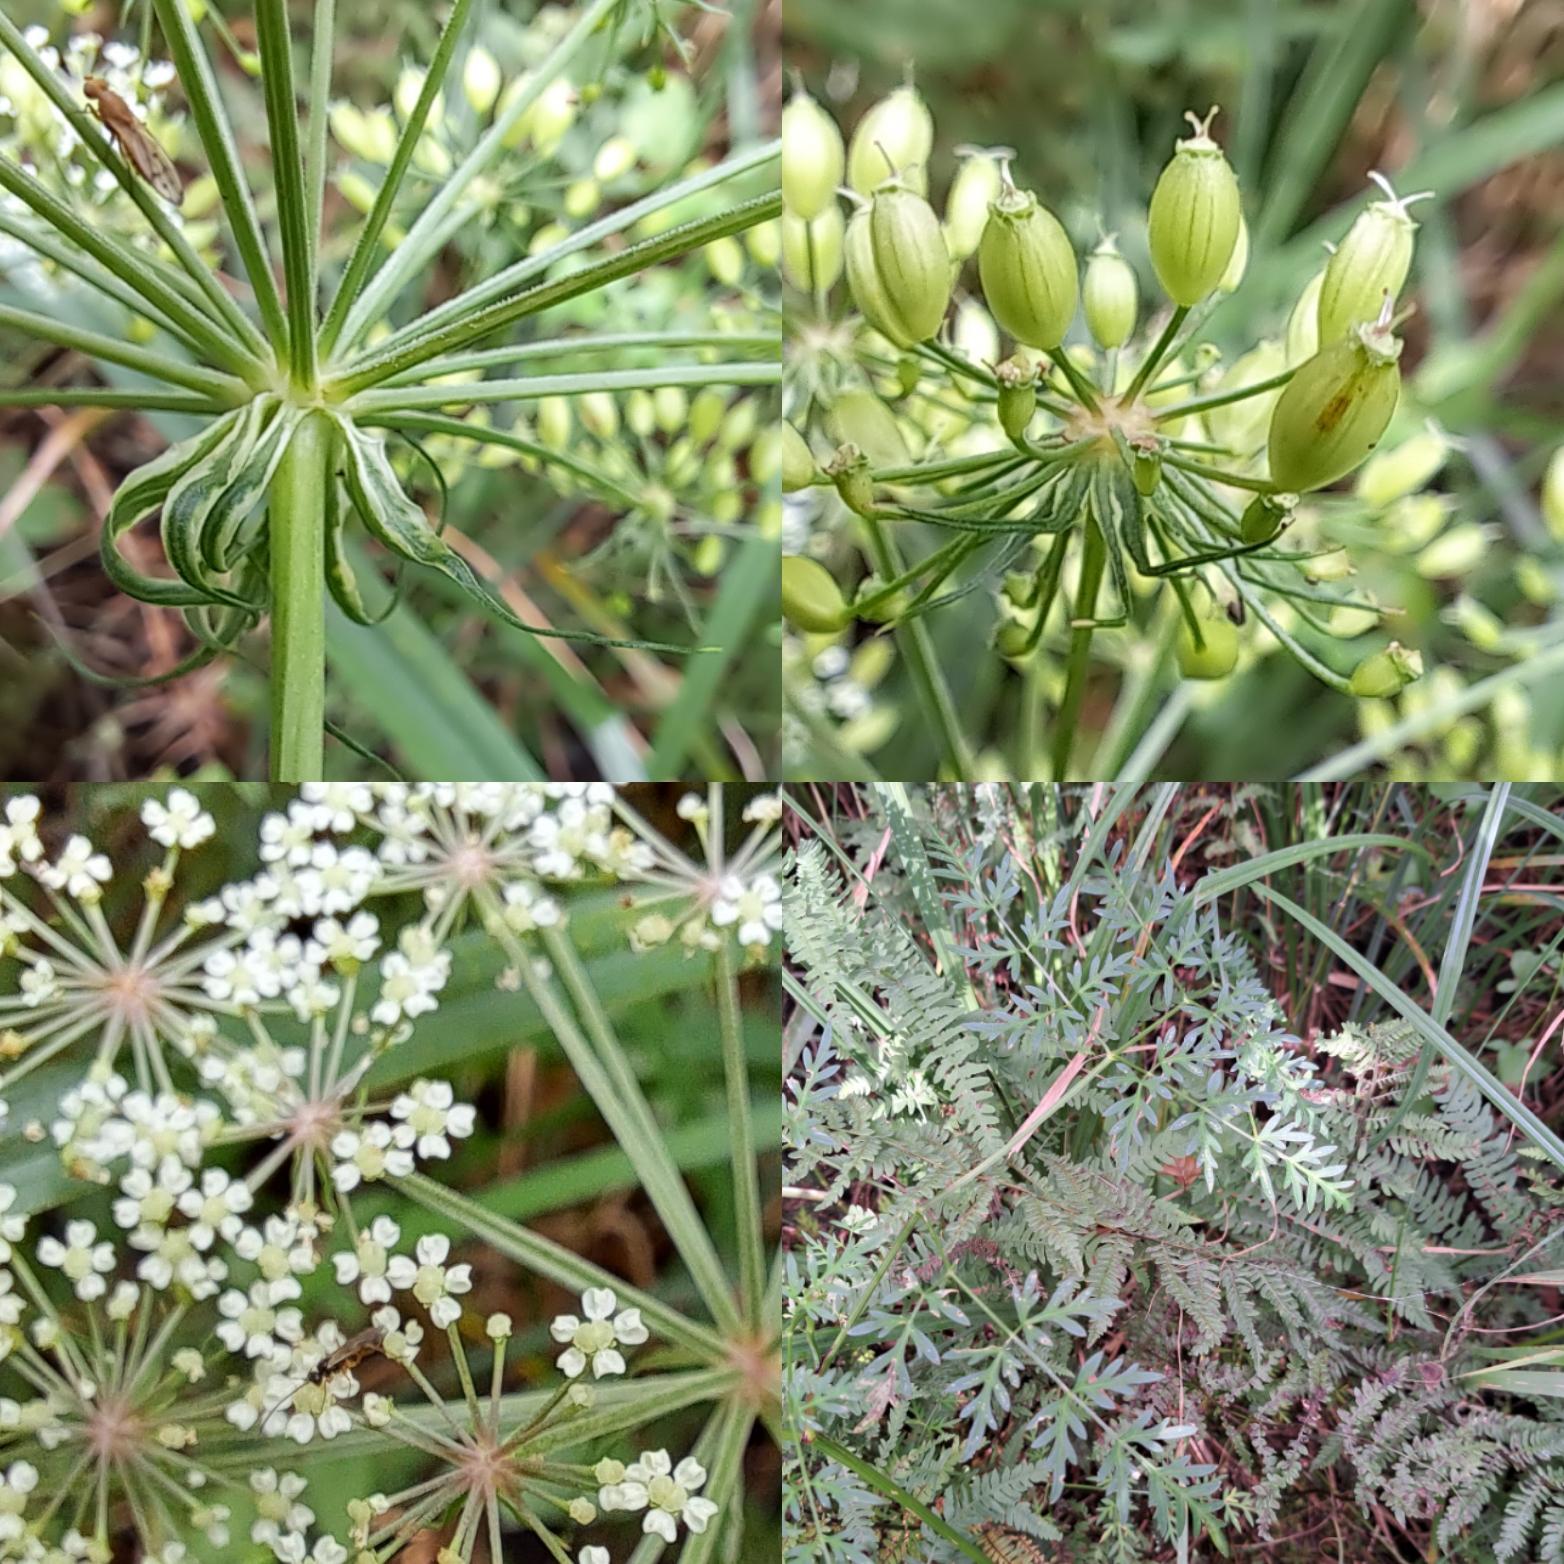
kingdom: Plantae
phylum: Tracheophyta
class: Magnoliopsida
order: Apiales
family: Apiaceae
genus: Thysselinum
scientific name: Thysselinum palustre
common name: Kær-svovlrod
